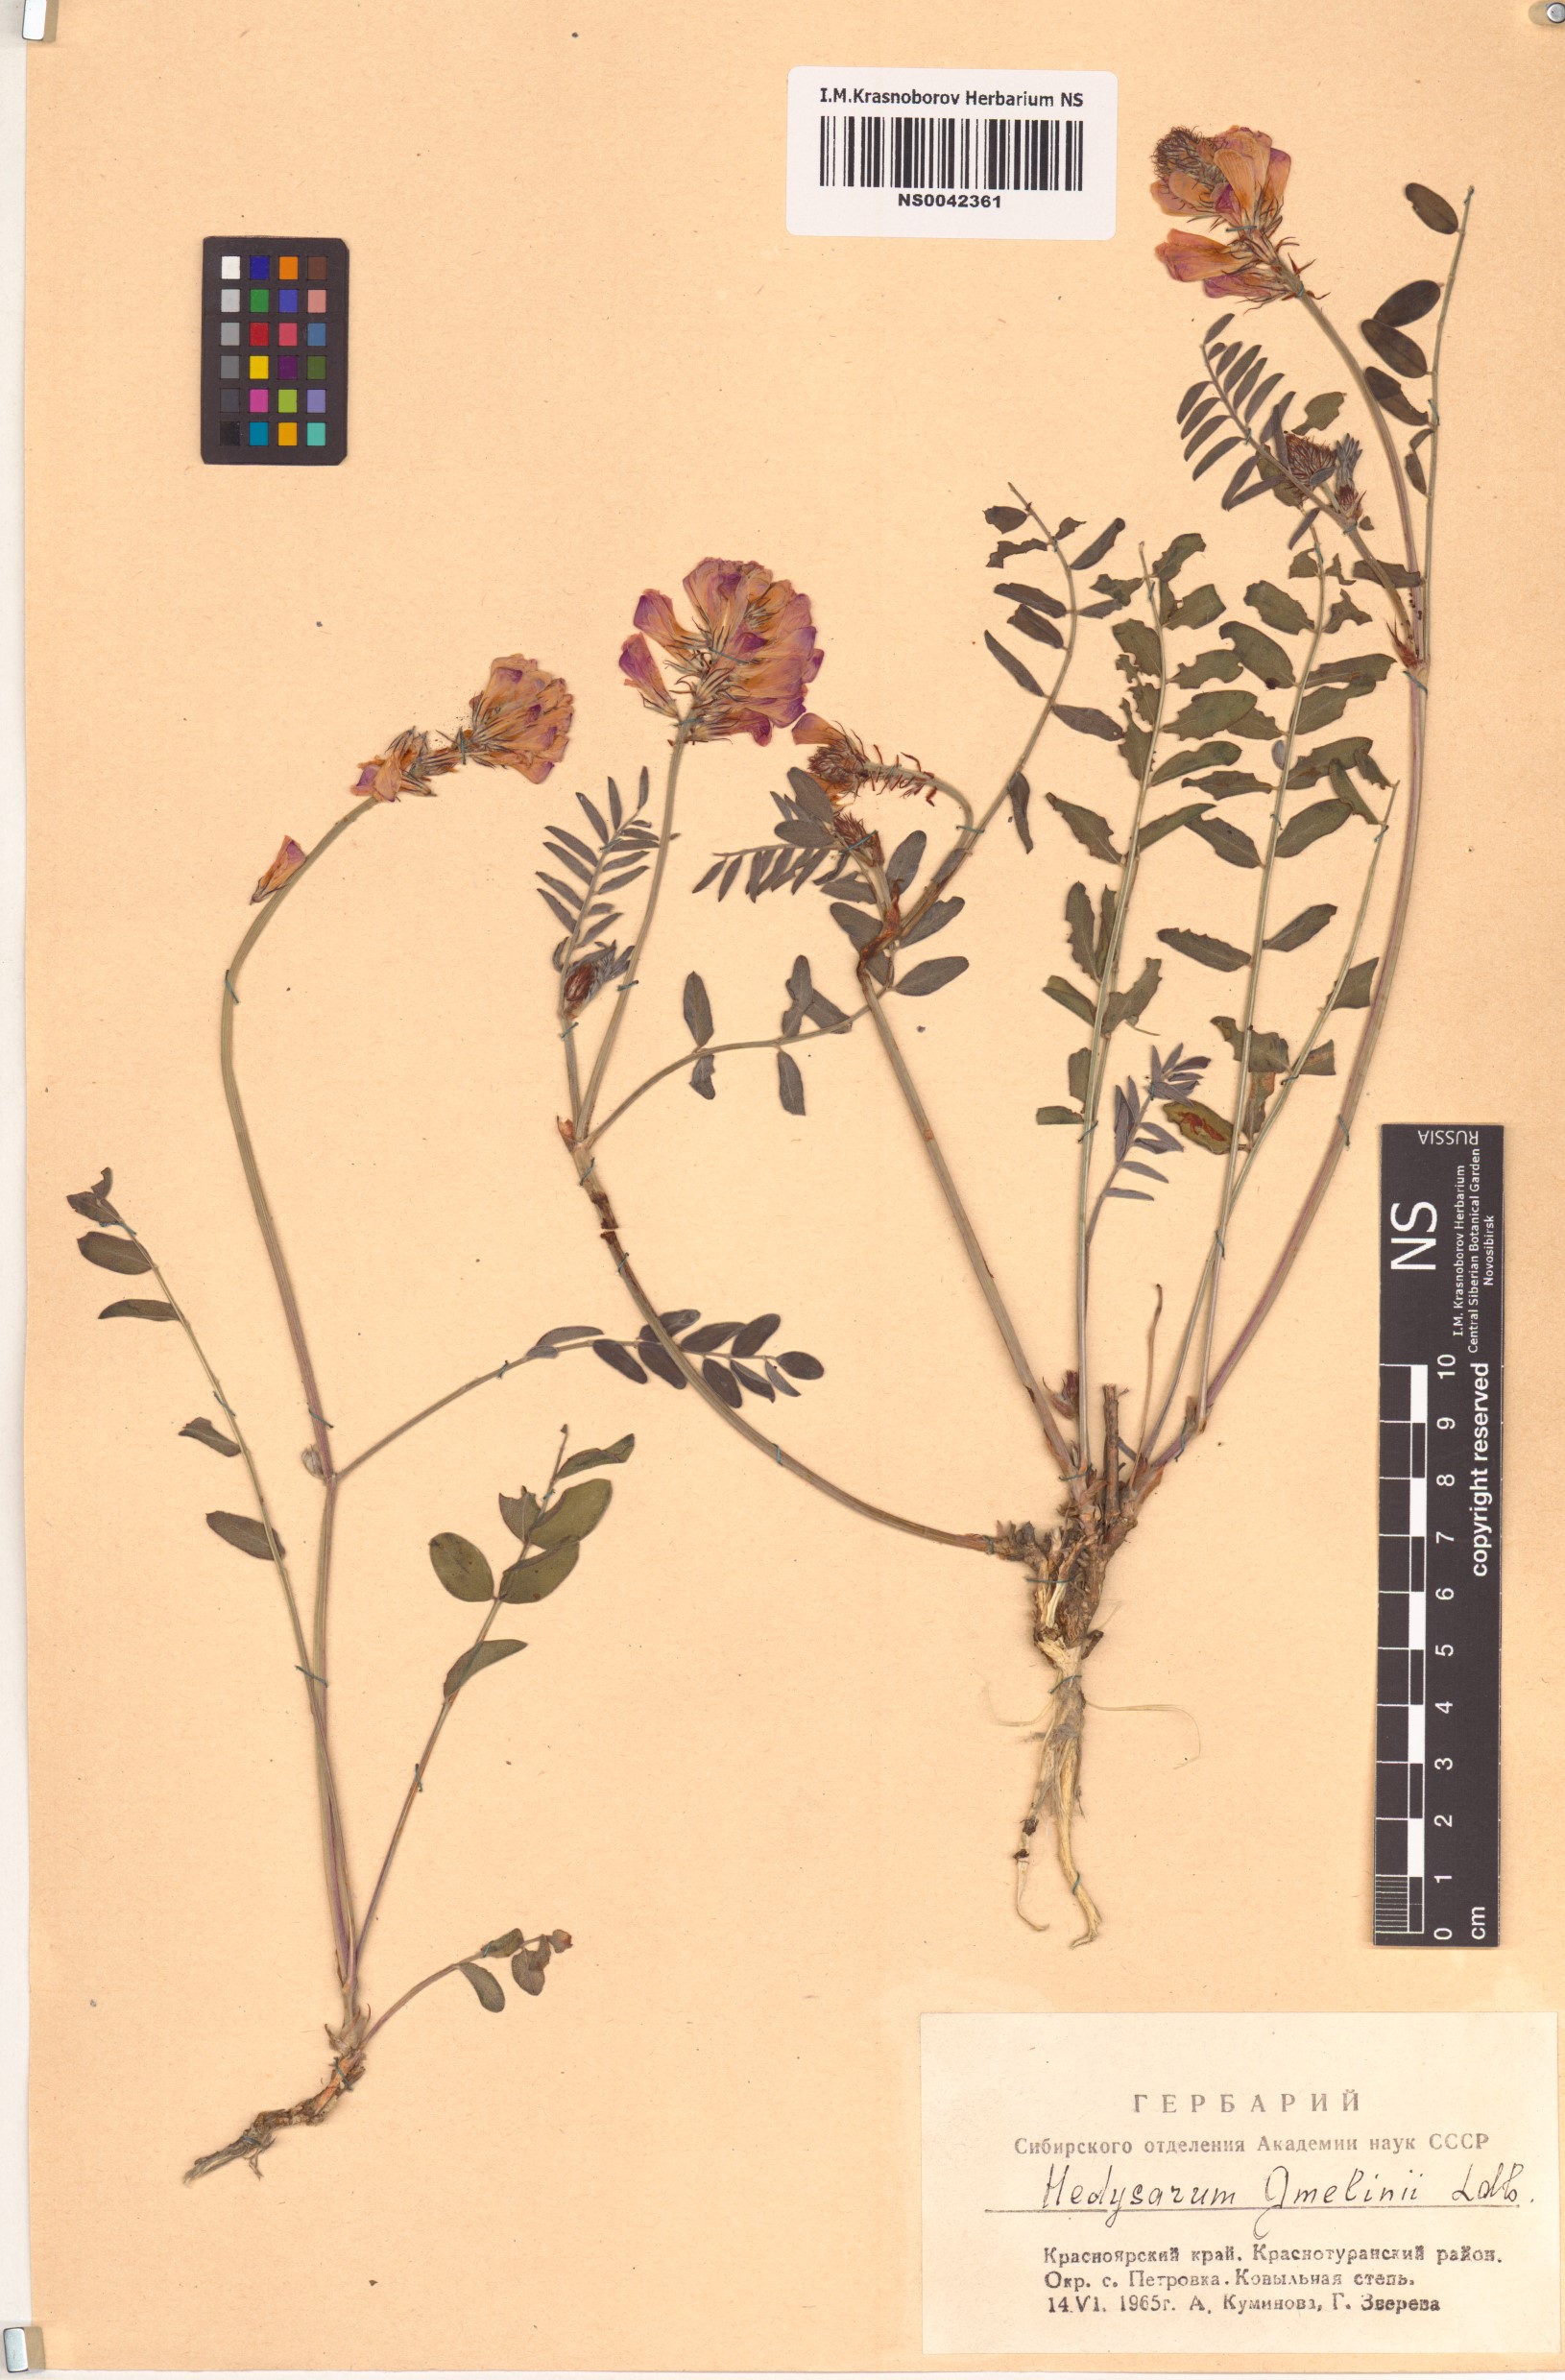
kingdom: Plantae
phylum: Tracheophyta
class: Magnoliopsida
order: Fabales
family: Fabaceae
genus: Hedysarum
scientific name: Hedysarum gmelinii
